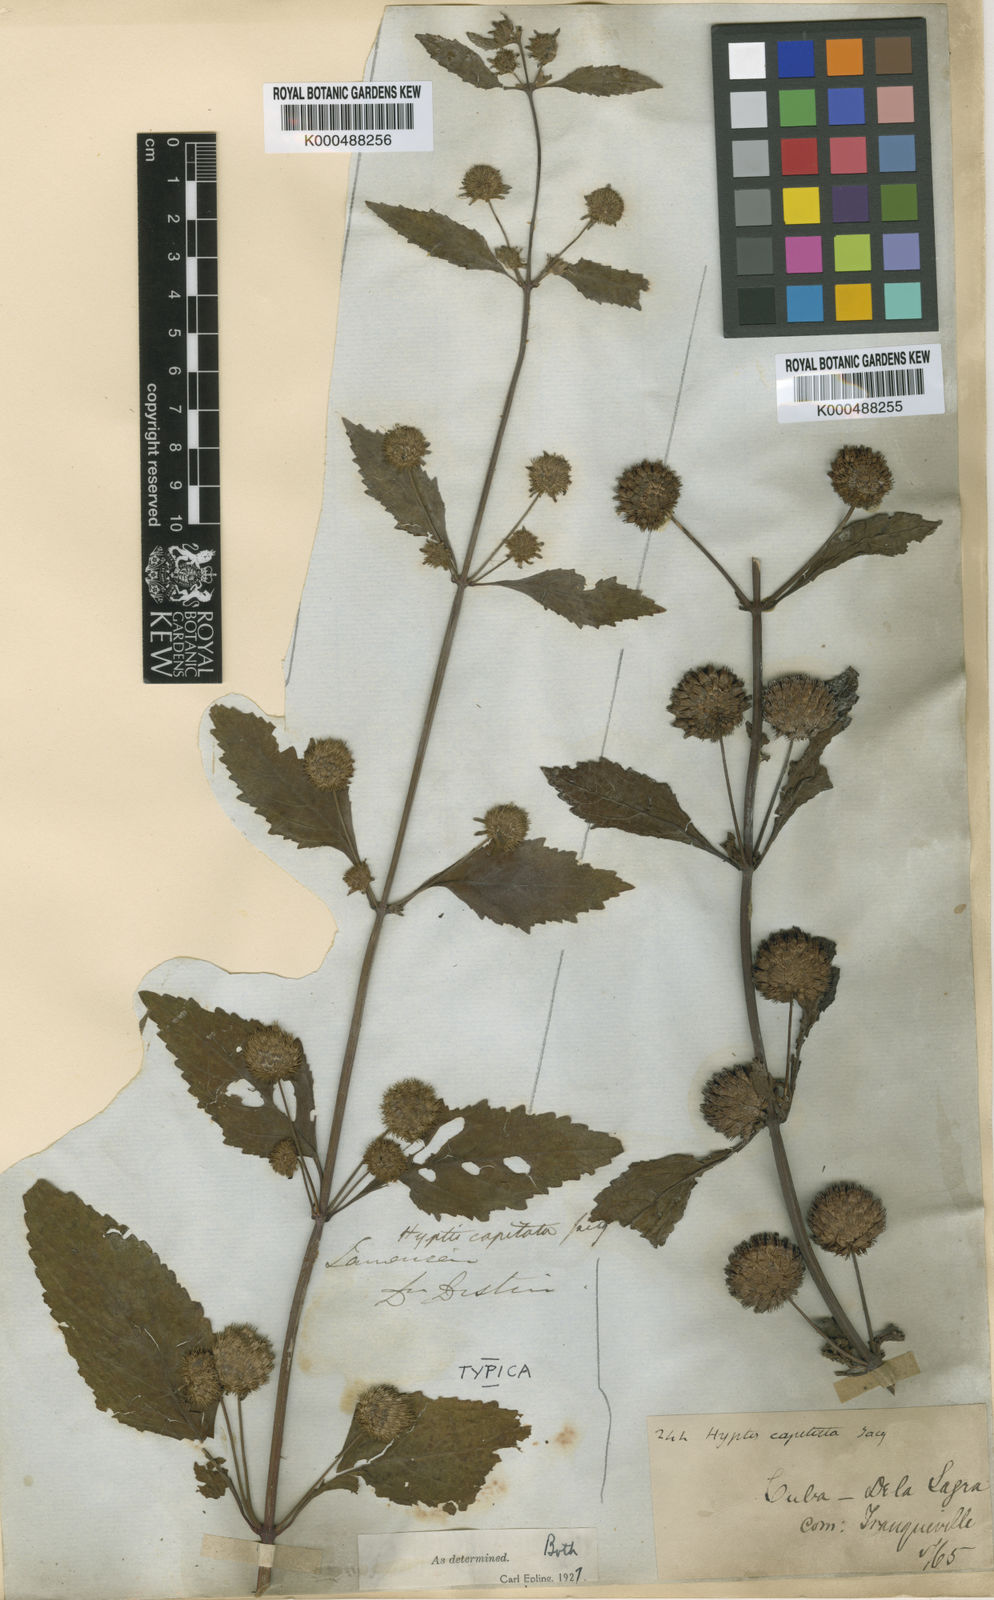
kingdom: Plantae
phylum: Tracheophyta
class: Magnoliopsida
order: Lamiales
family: Lamiaceae
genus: Hyptis
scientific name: Hyptis capitata
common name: False ironwort
